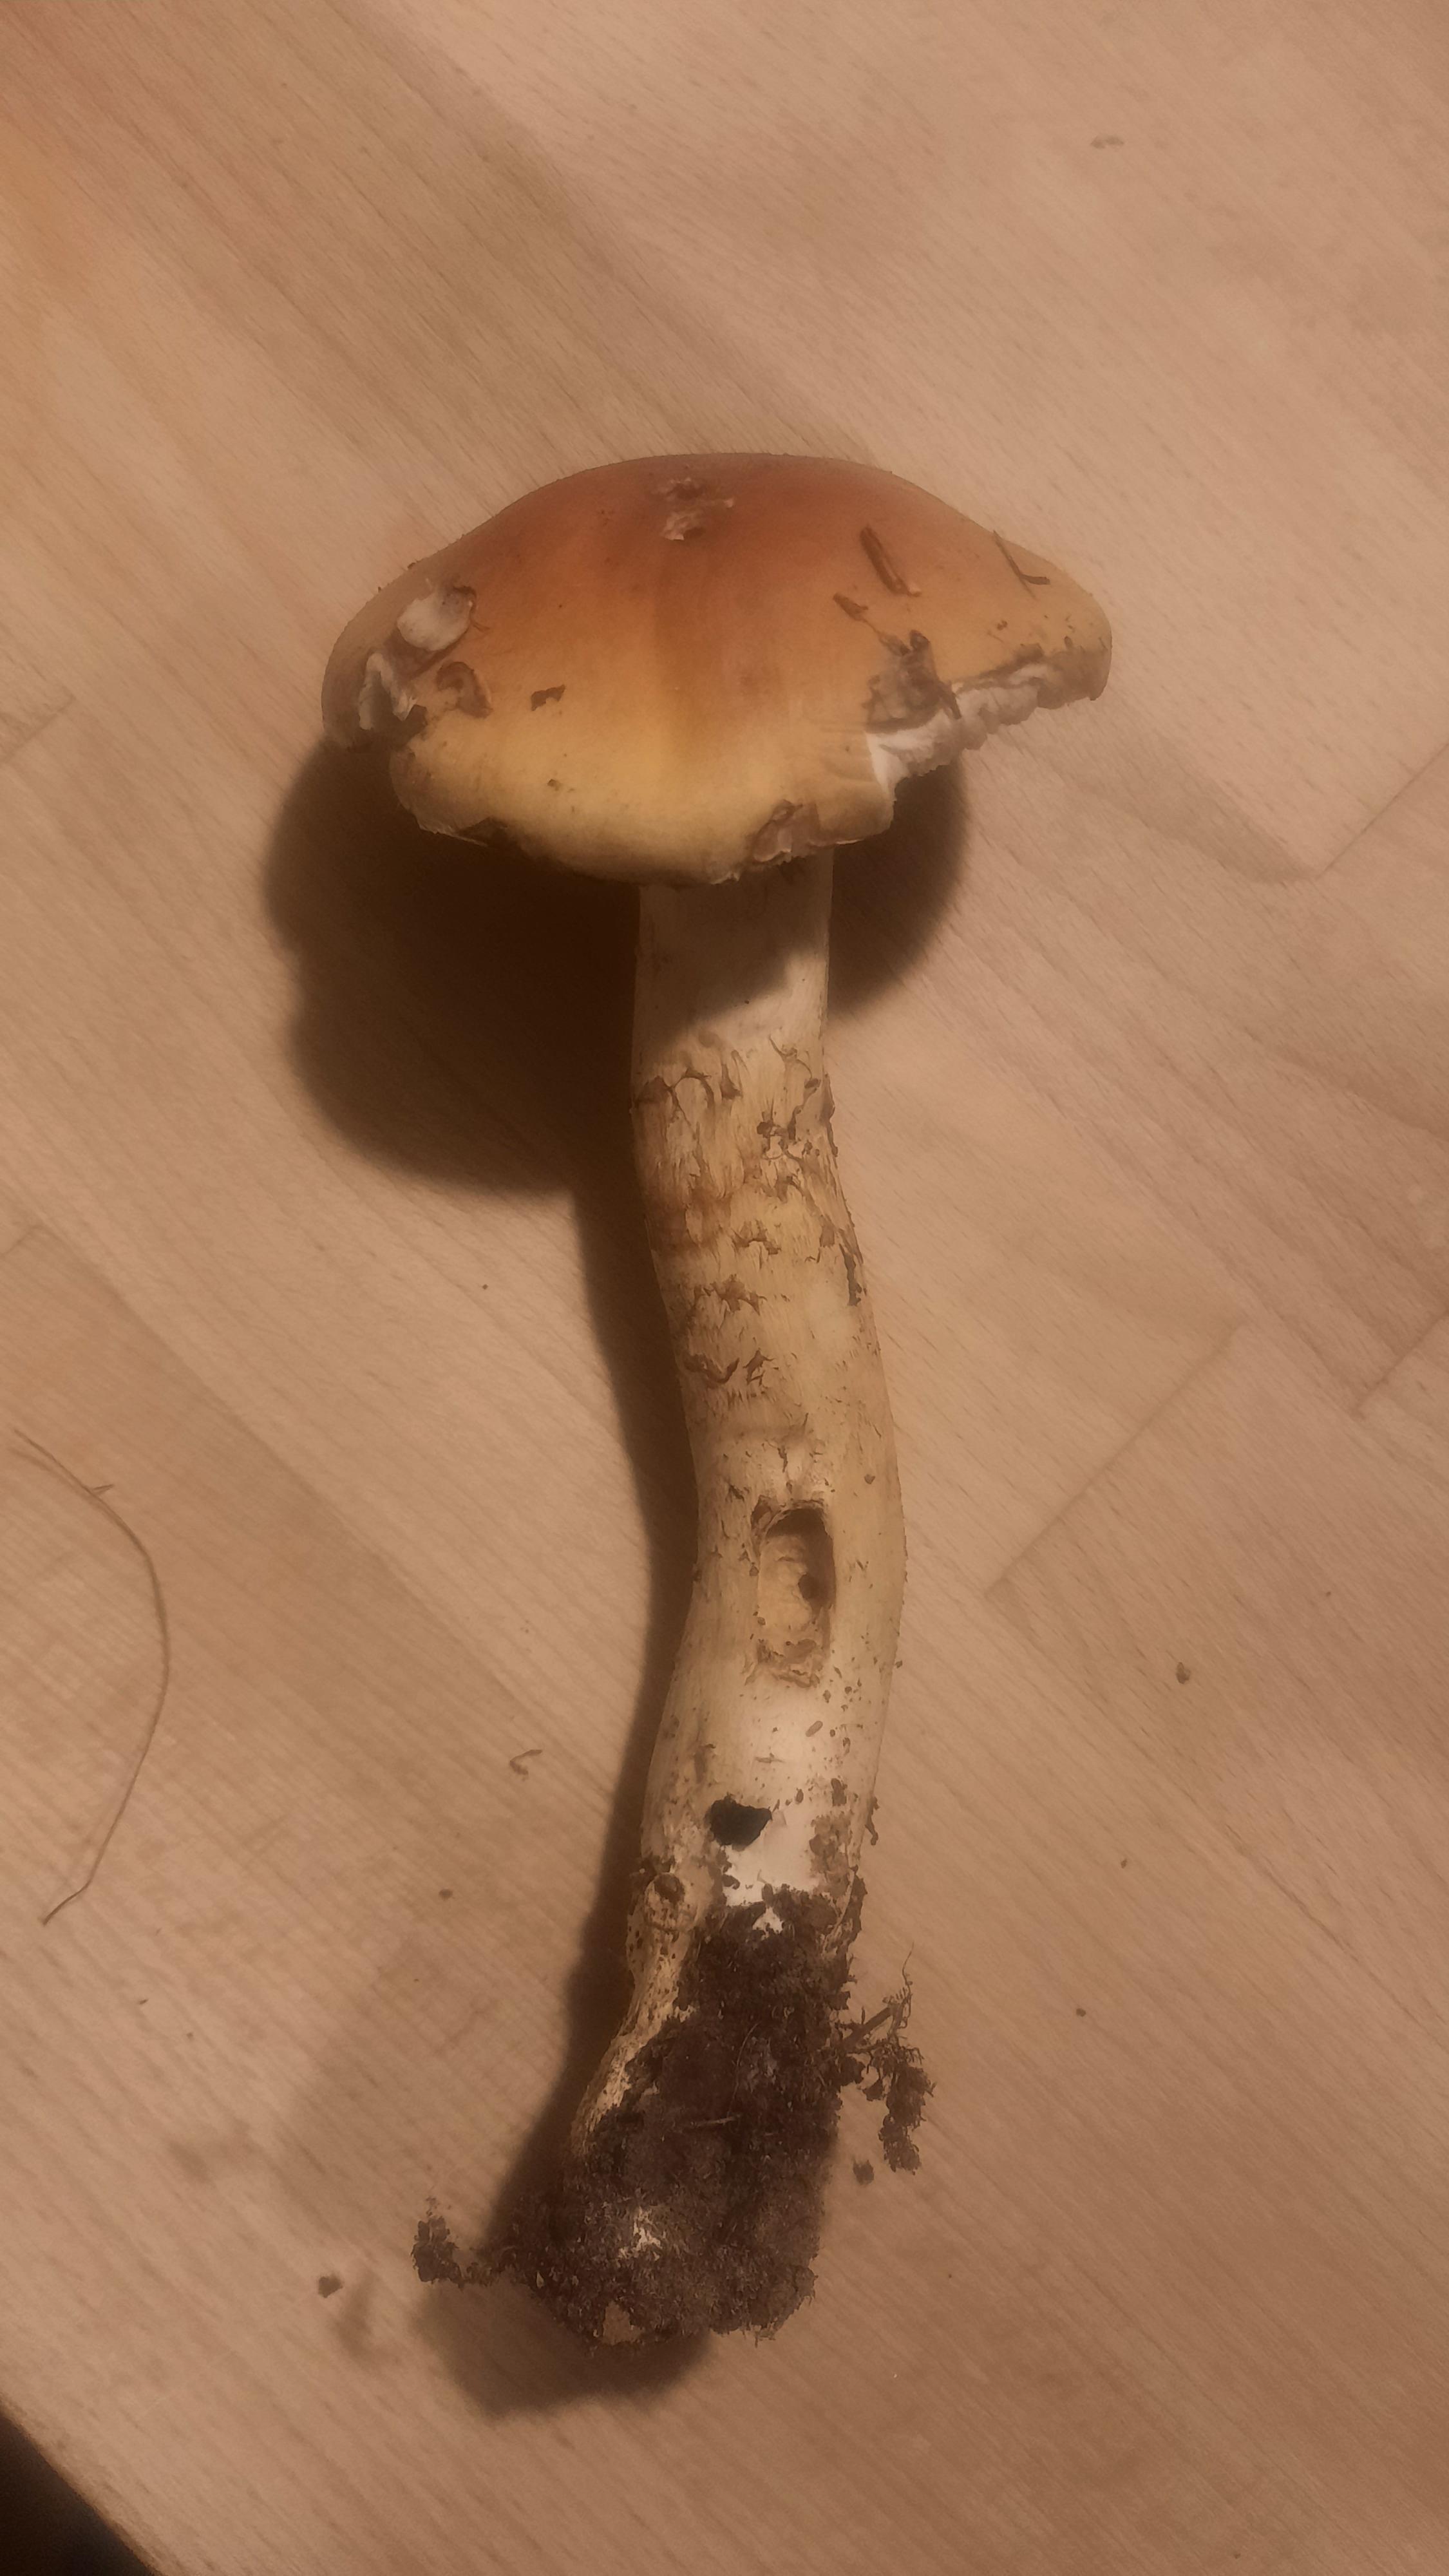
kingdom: Fungi
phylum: Basidiomycota
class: Agaricomycetes
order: Agaricales
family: Cortinariaceae
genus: Phlegmacium
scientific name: Phlegmacium triumphans
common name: gulbæltet slørhat
